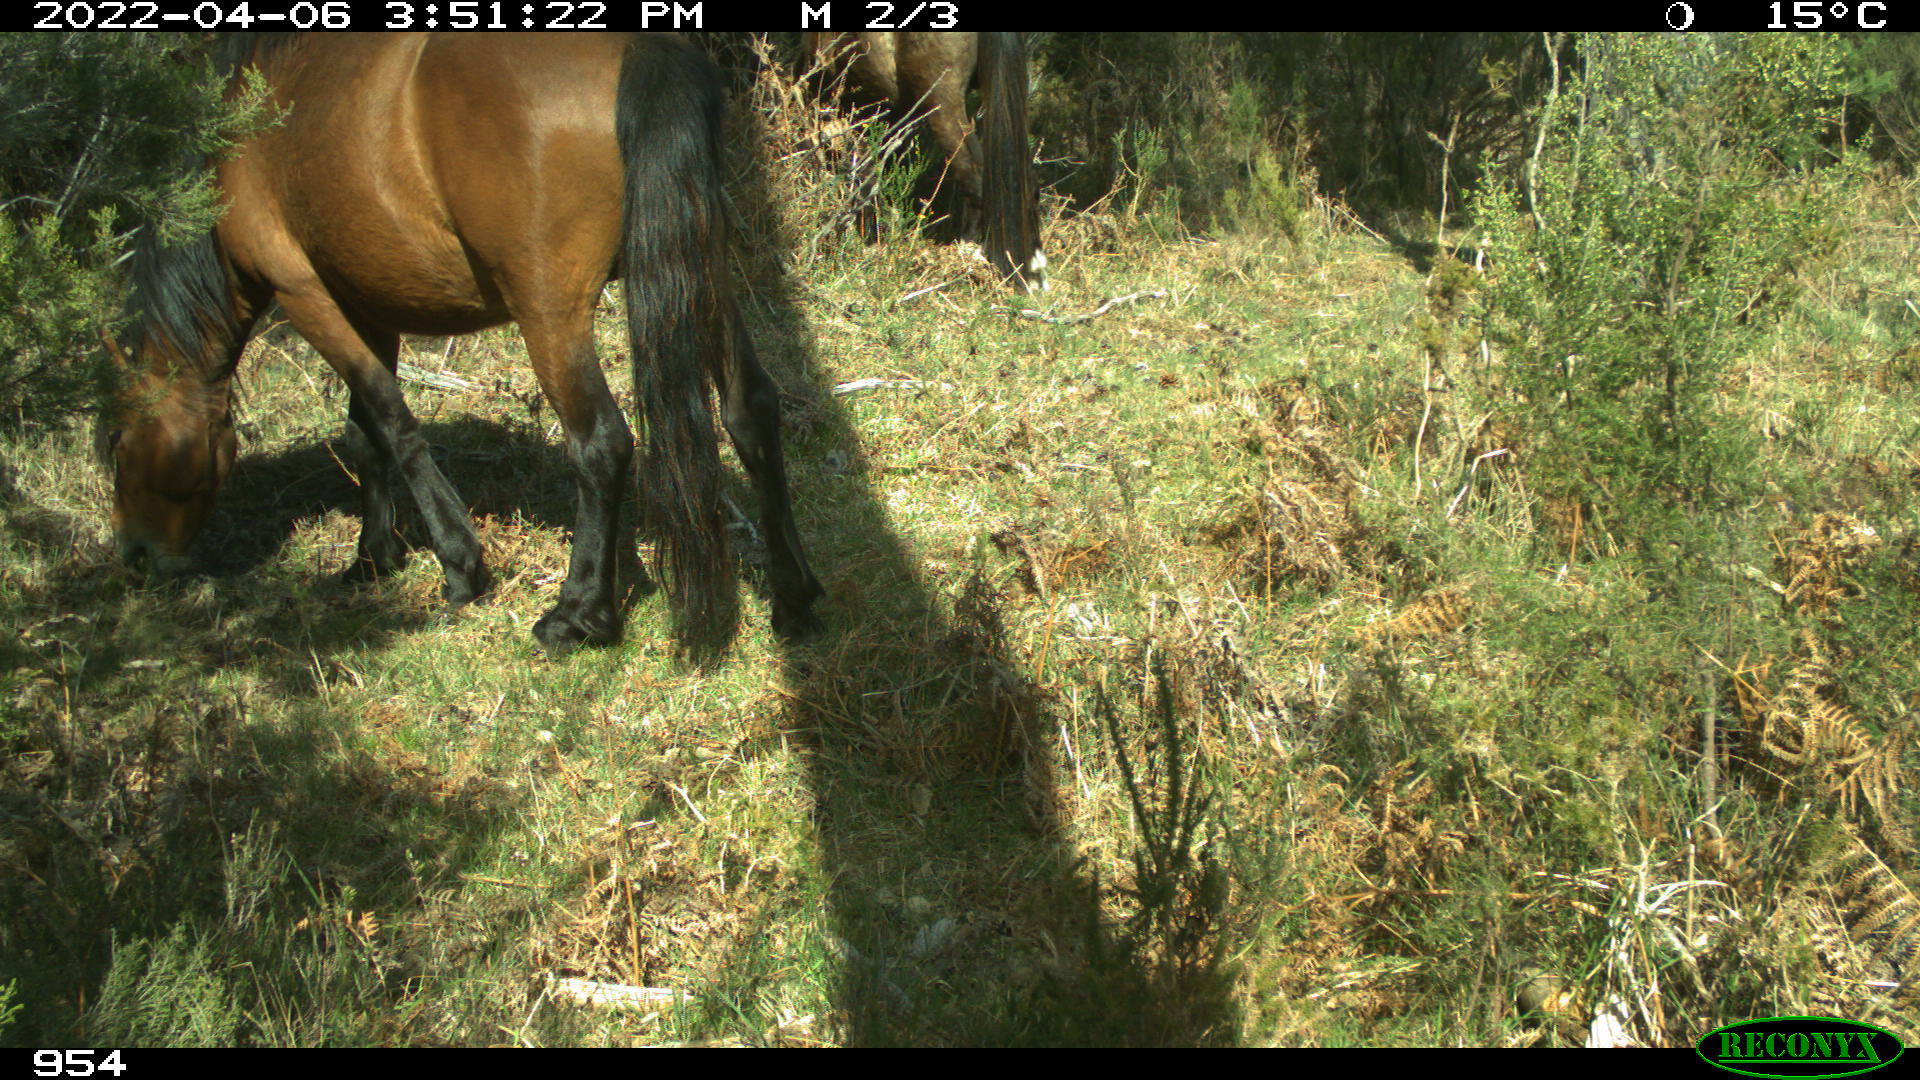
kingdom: Animalia
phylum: Chordata
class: Mammalia
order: Perissodactyla
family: Equidae
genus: Equus
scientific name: Equus caballus
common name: Horse
